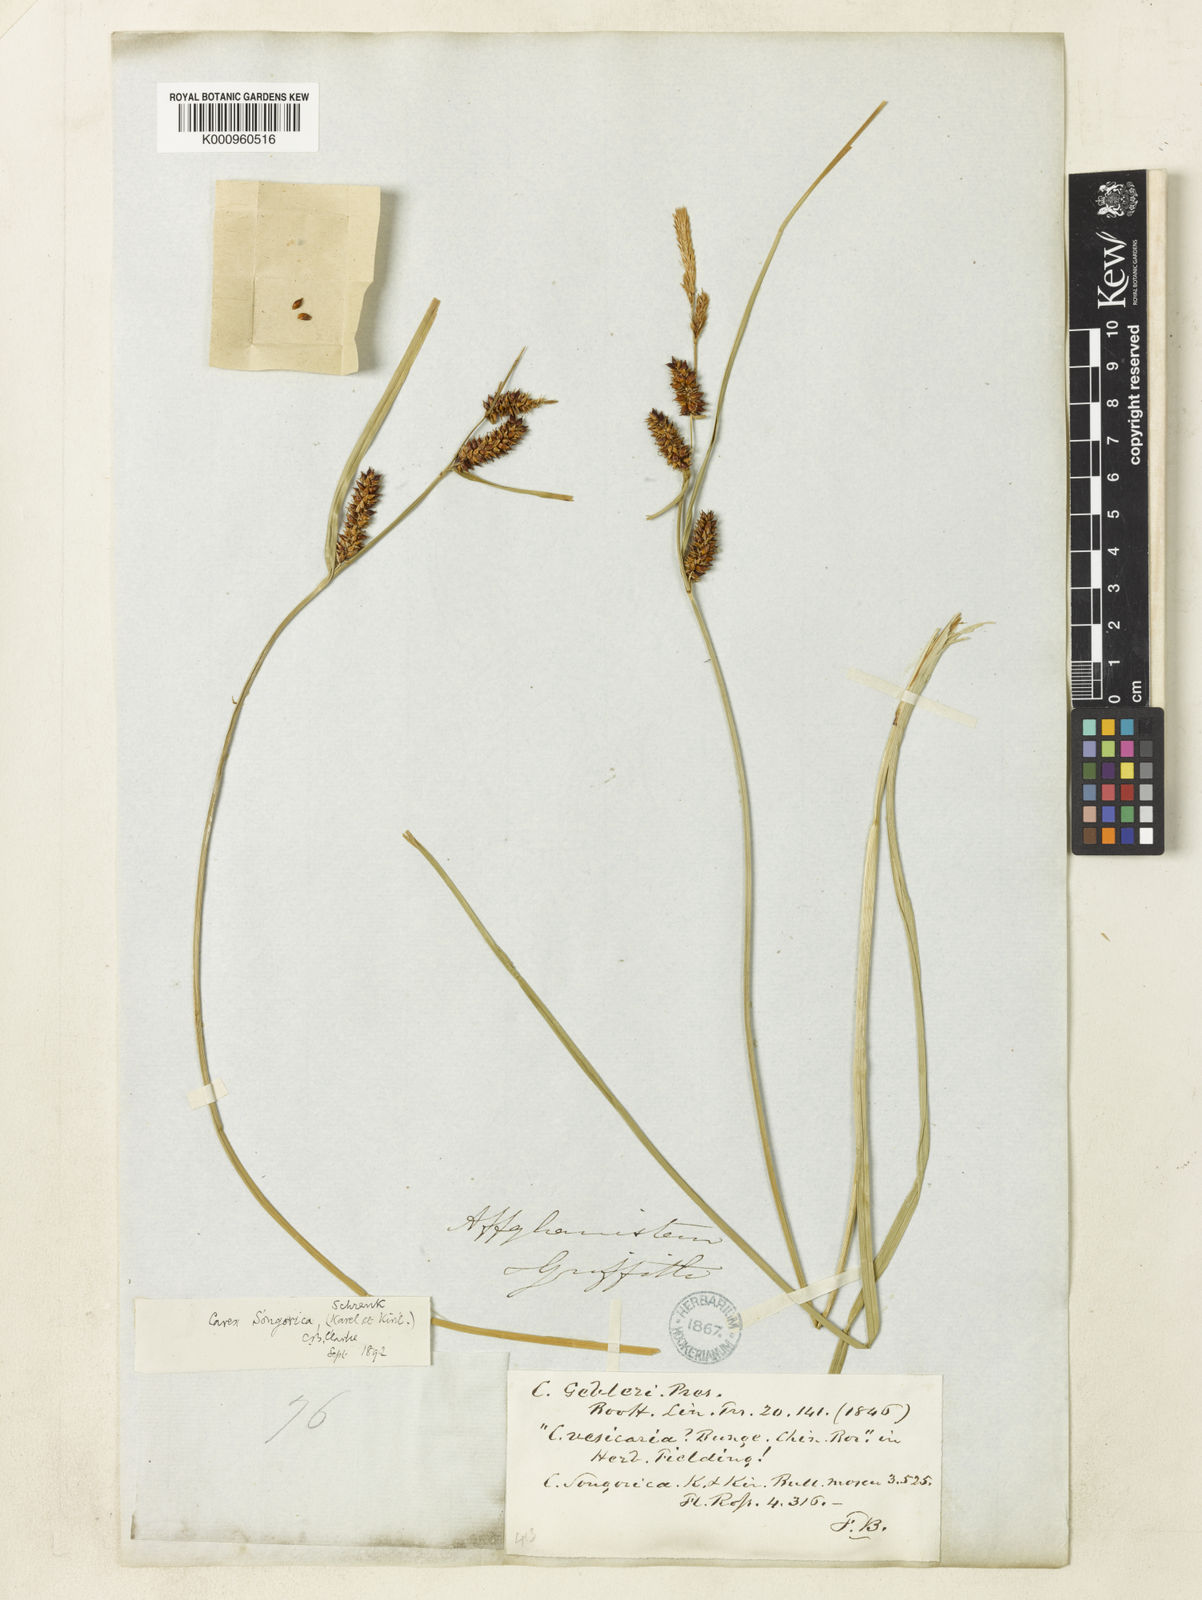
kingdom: Plantae
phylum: Tracheophyta
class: Liliopsida
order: Poales
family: Cyperaceae
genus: Carex
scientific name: Carex heterostachya
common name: Different-spike sedge
